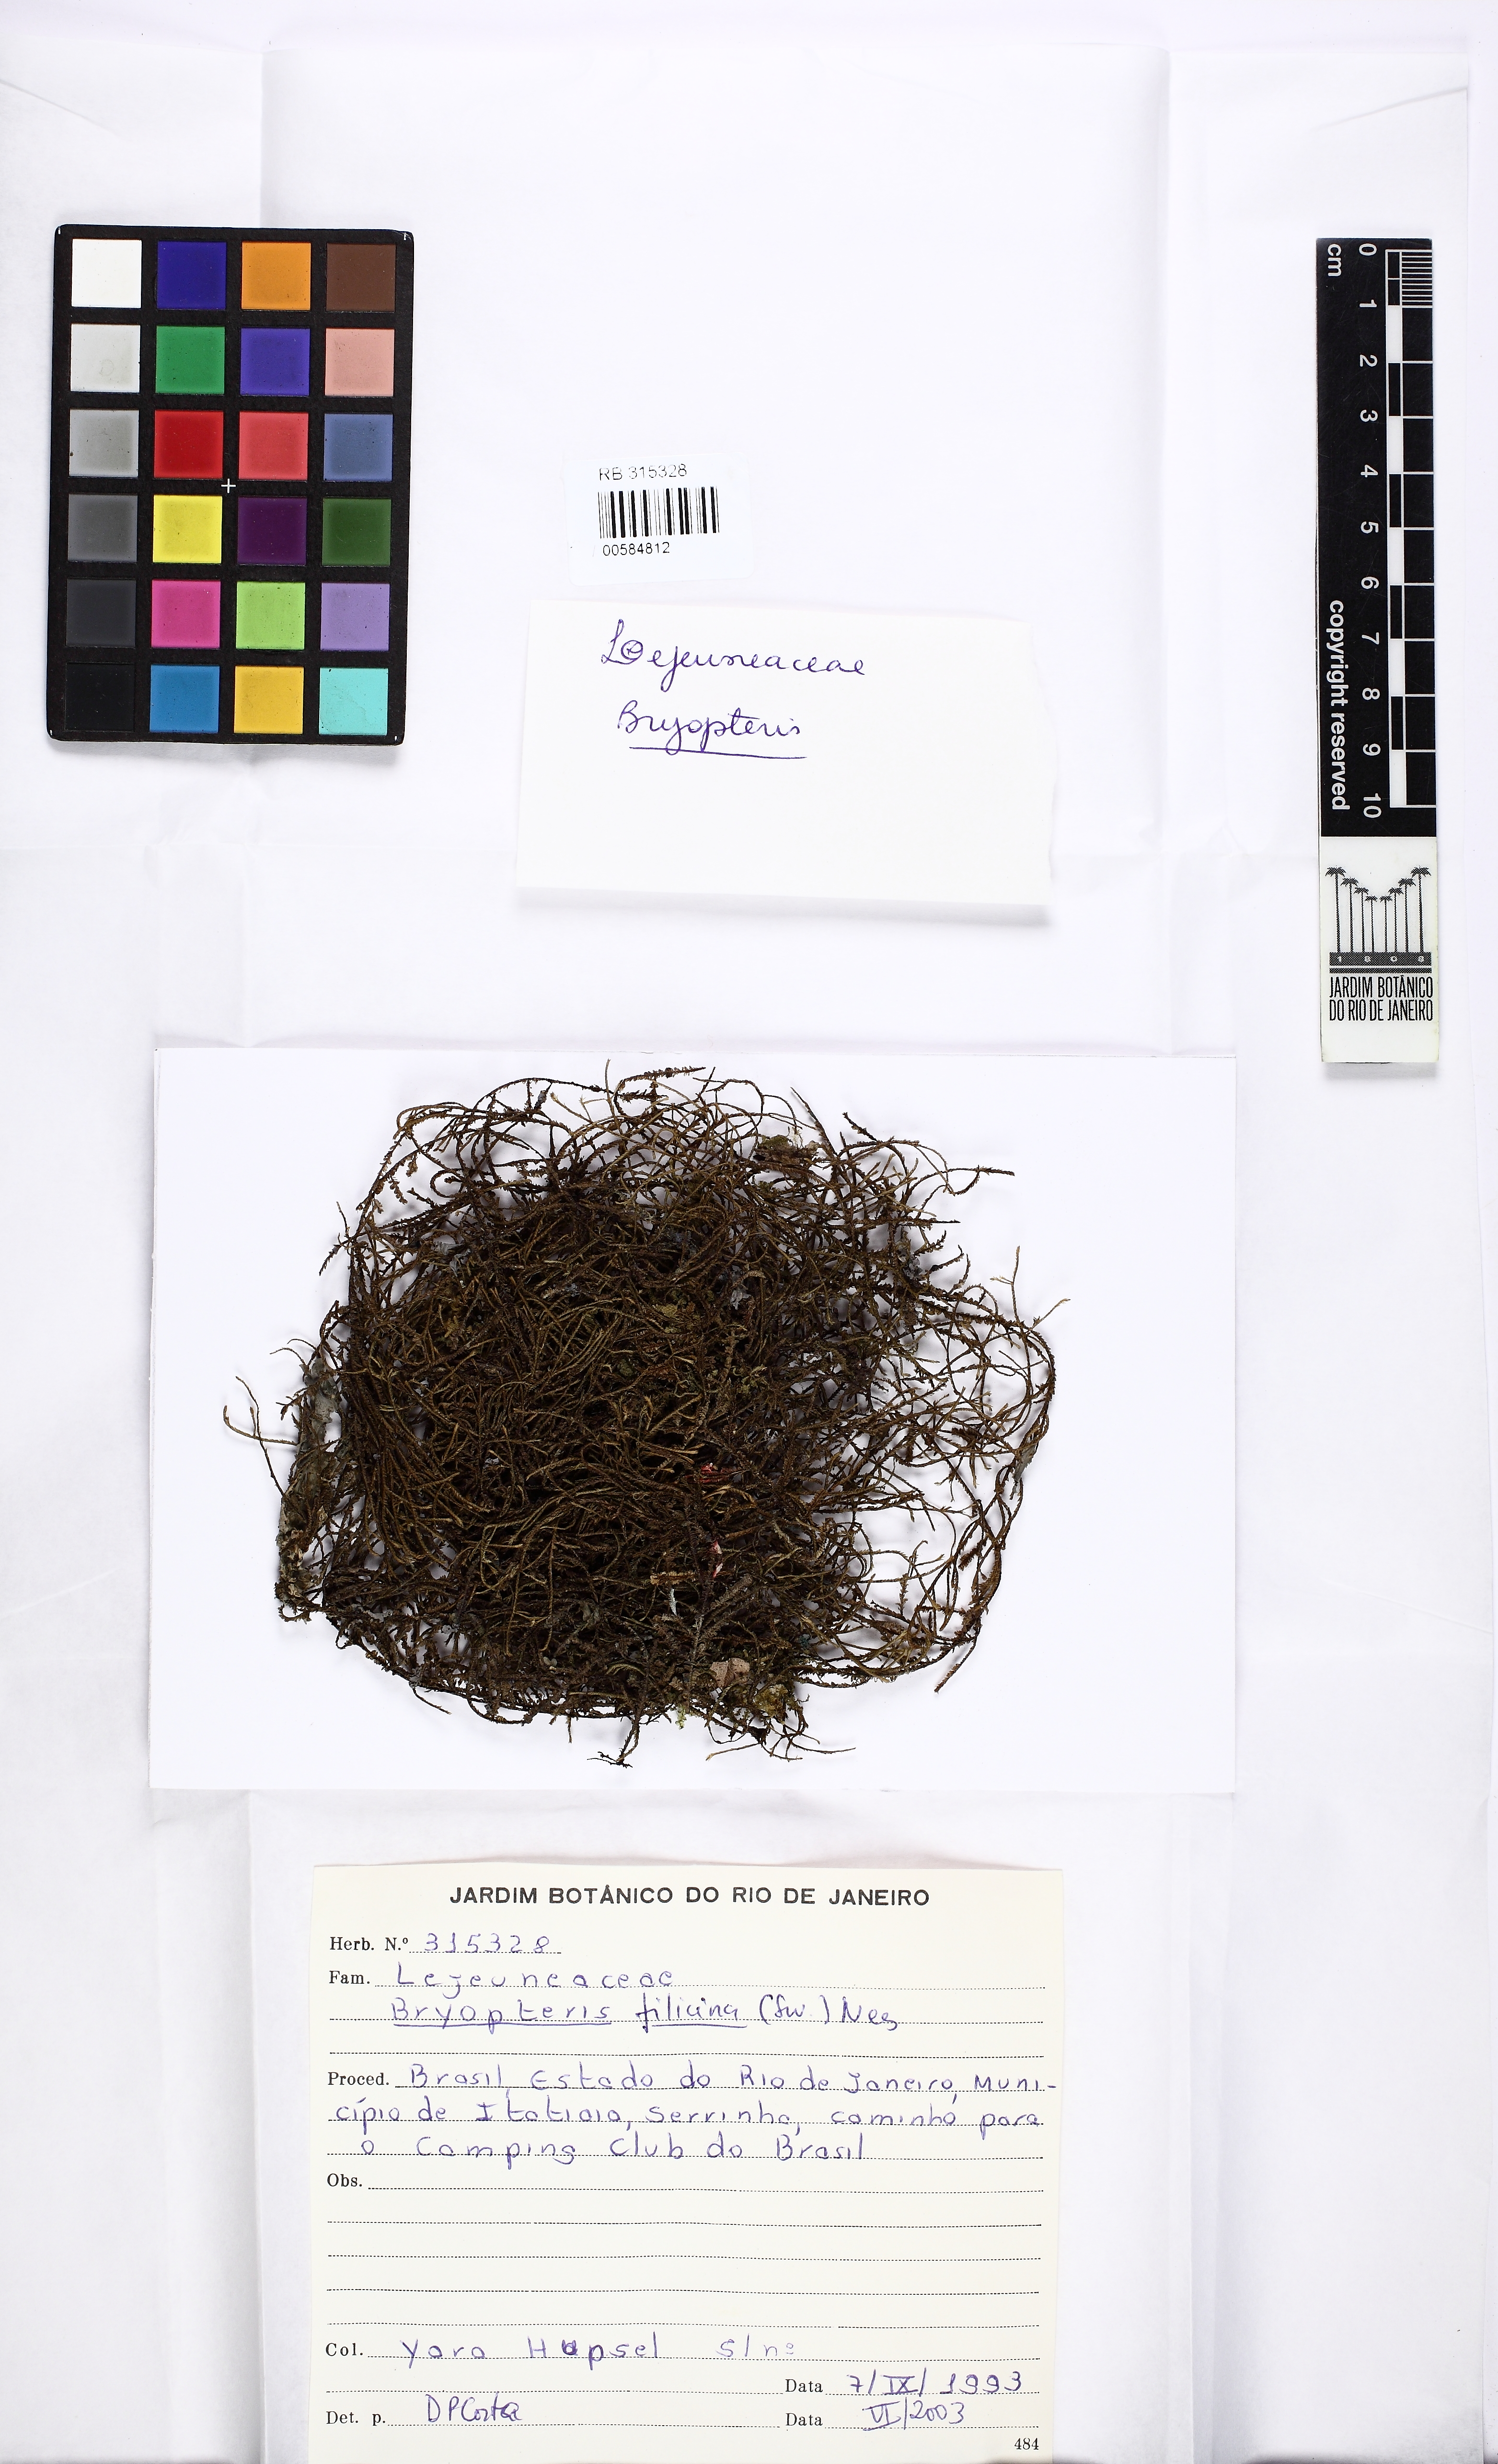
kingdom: Plantae
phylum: Marchantiophyta
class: Jungermanniopsida
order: Porellales
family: Lejeuneaceae
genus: Bryopteris
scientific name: Bryopteris filicina
